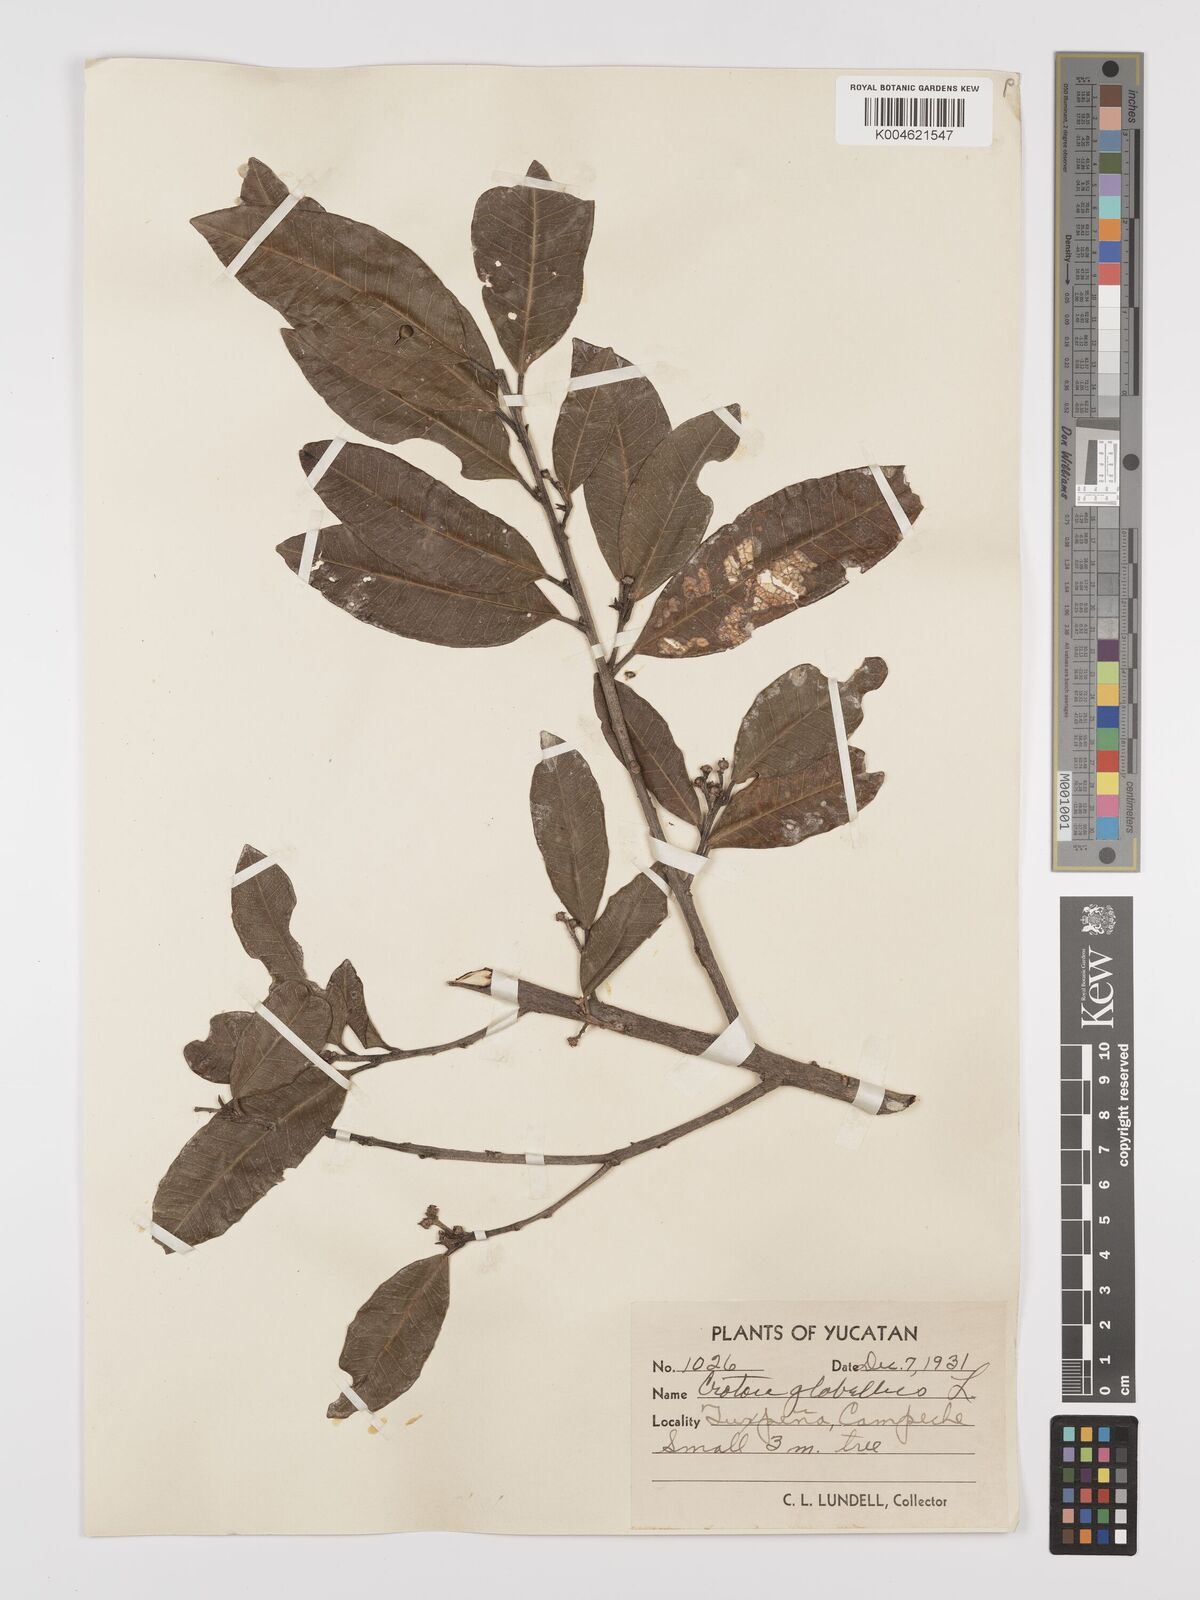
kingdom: Plantae
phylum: Tracheophyta
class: Magnoliopsida
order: Malpighiales
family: Euphorbiaceae
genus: Croton
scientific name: Croton glabellus
